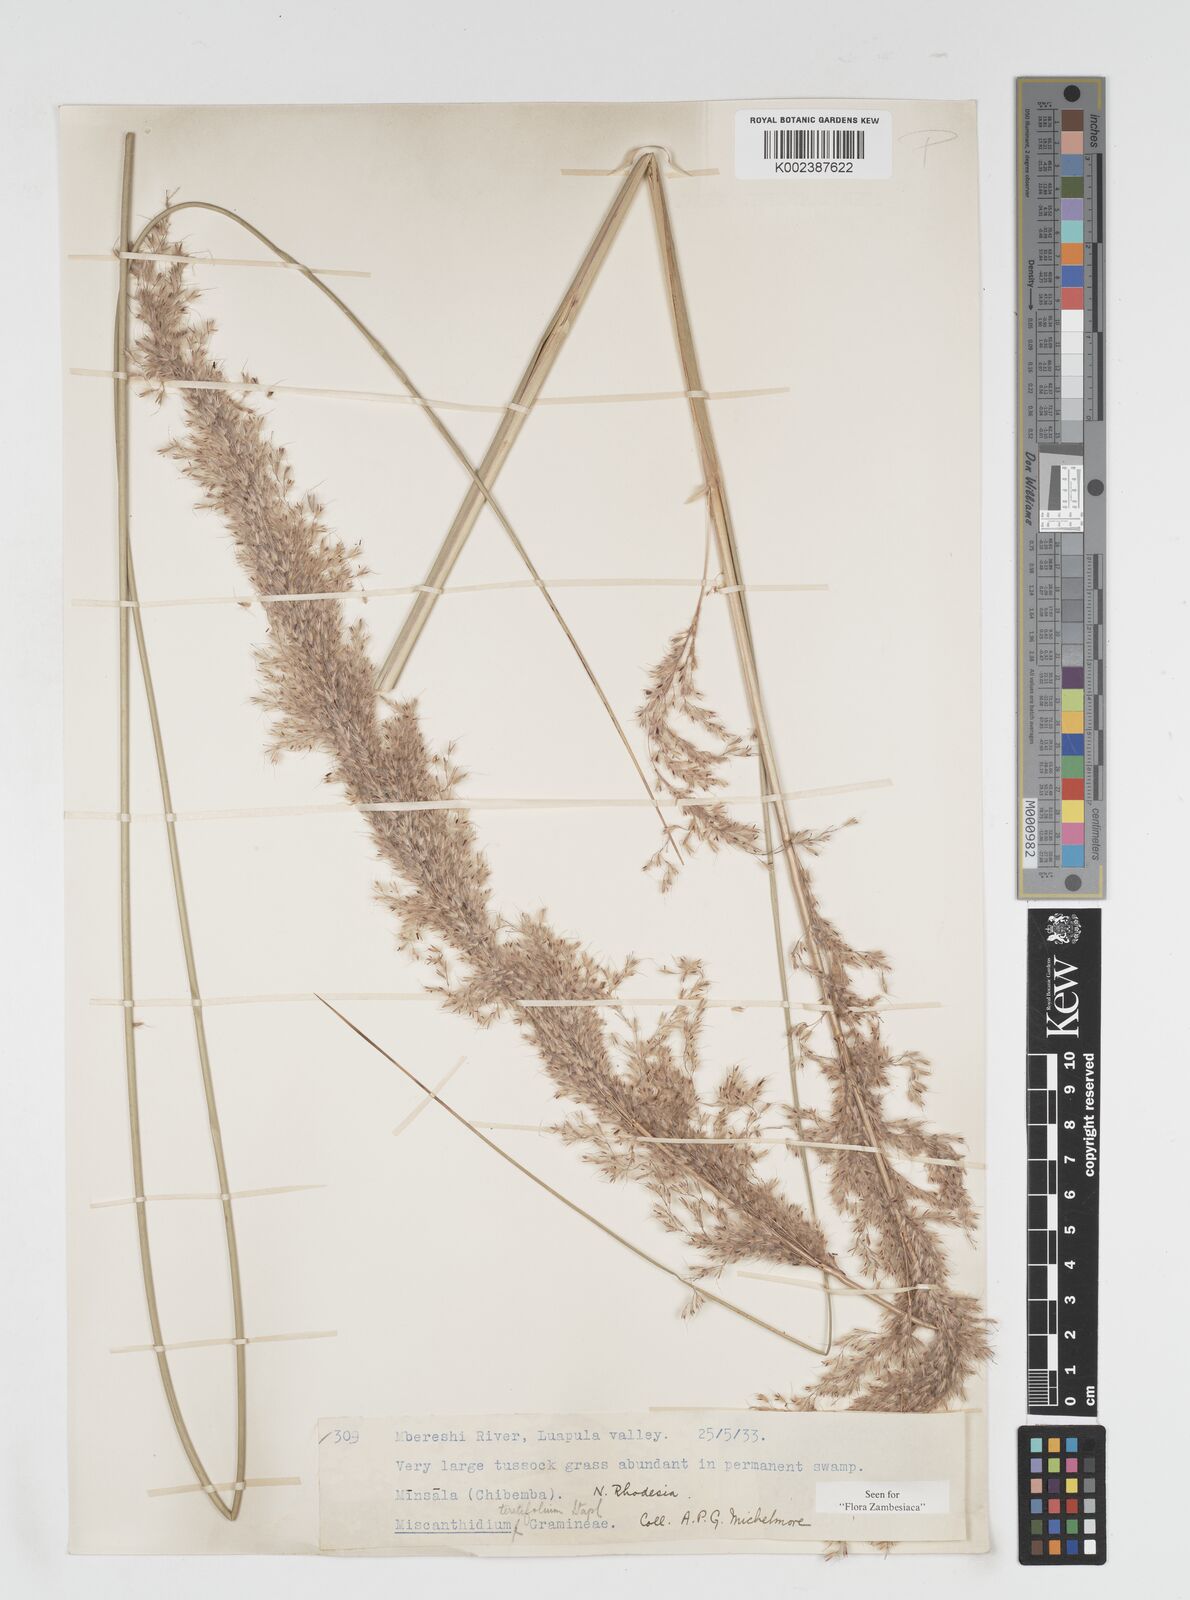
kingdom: Plantae
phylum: Tracheophyta
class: Liliopsida
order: Poales
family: Poaceae
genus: Miscanthidium
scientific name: Miscanthidium junceum
